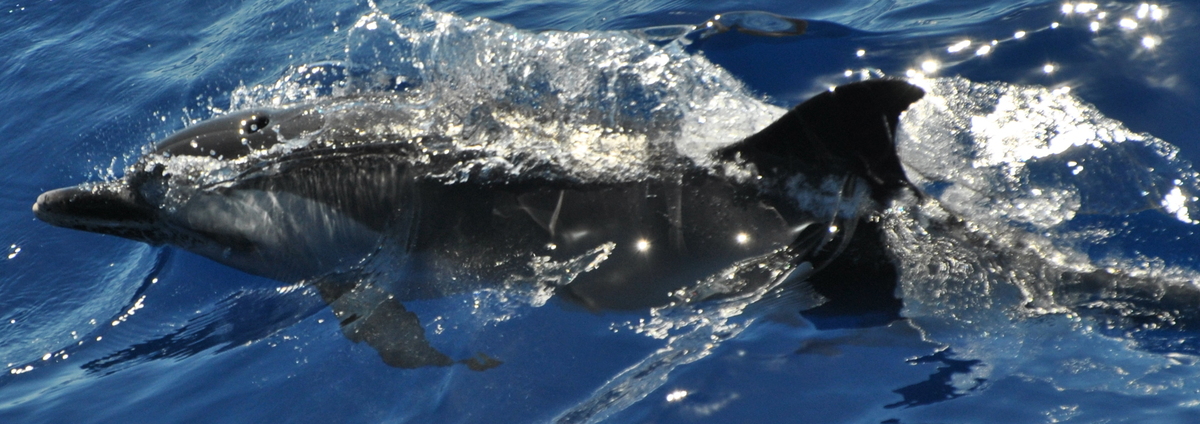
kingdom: Animalia
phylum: Chordata
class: Mammalia
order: Cetacea
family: Delphinidae
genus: Stenella
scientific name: Stenella attenuata
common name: Pantropical Spotted Dolphin
